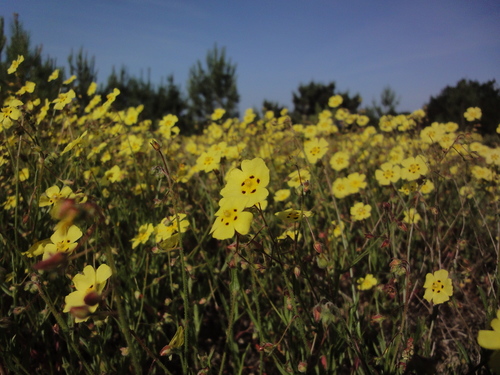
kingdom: Plantae
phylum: Tracheophyta
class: Magnoliopsida
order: Malvales
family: Cistaceae
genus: Tuberaria
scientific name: Tuberaria guttata
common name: Spotted rock-rose
